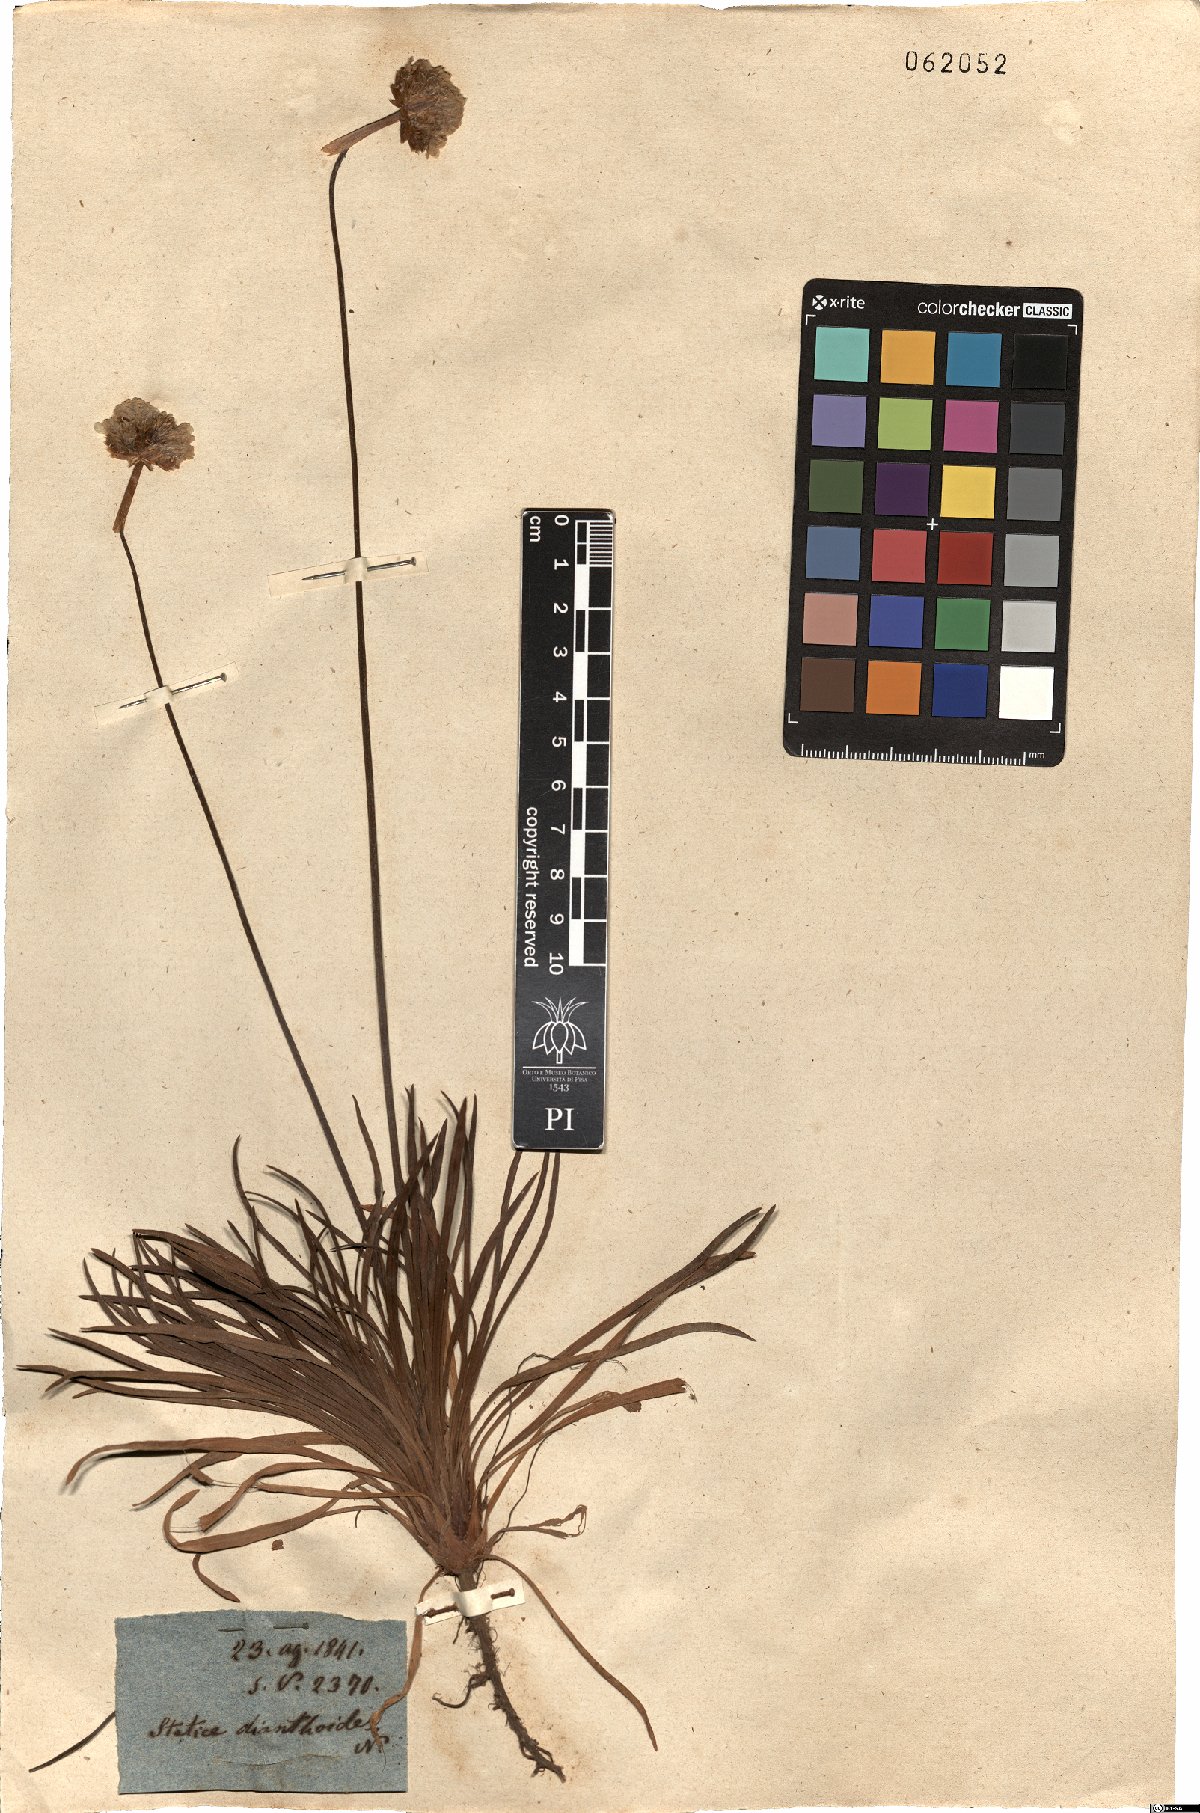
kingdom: Plantae
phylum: Tracheophyta
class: Magnoliopsida
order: Caryophyllales
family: Plumbaginaceae
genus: Armeria
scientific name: Armeria arenaria
